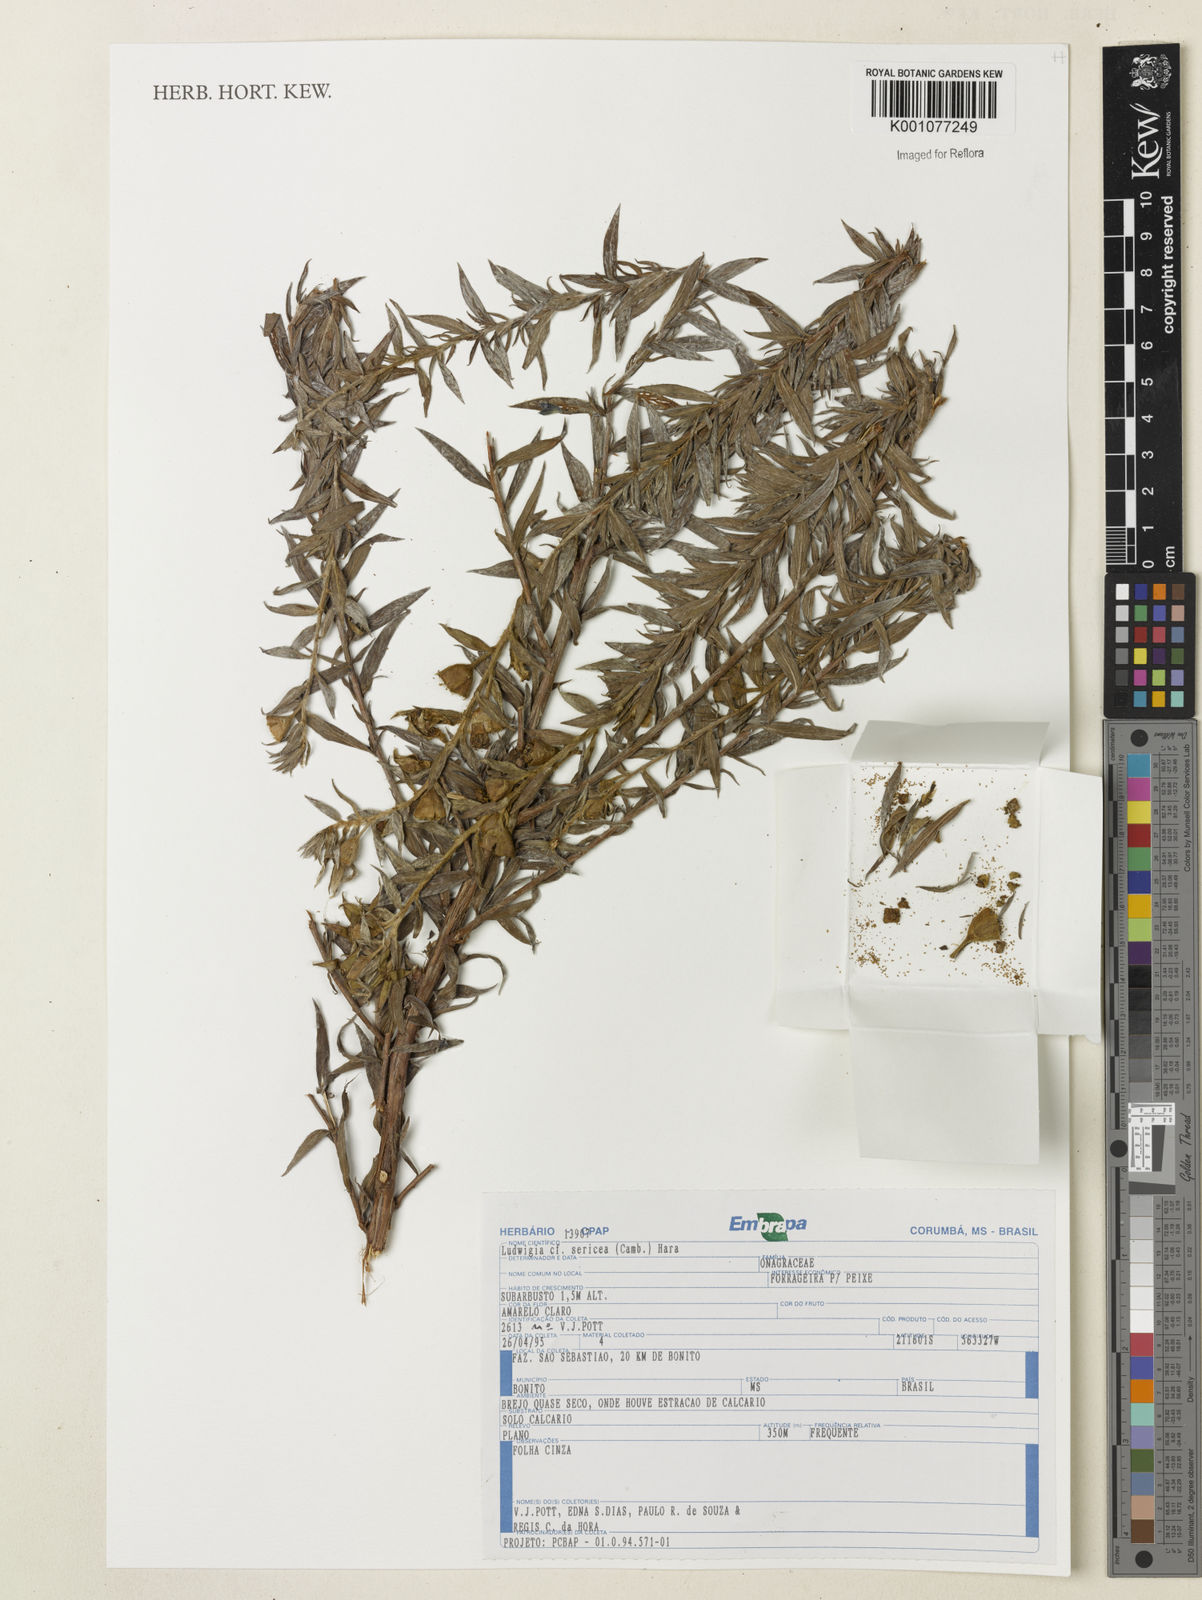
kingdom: Plantae
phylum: Tracheophyta
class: Magnoliopsida
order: Myrtales
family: Onagraceae
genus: Ludwigia
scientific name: Ludwigia sericea
